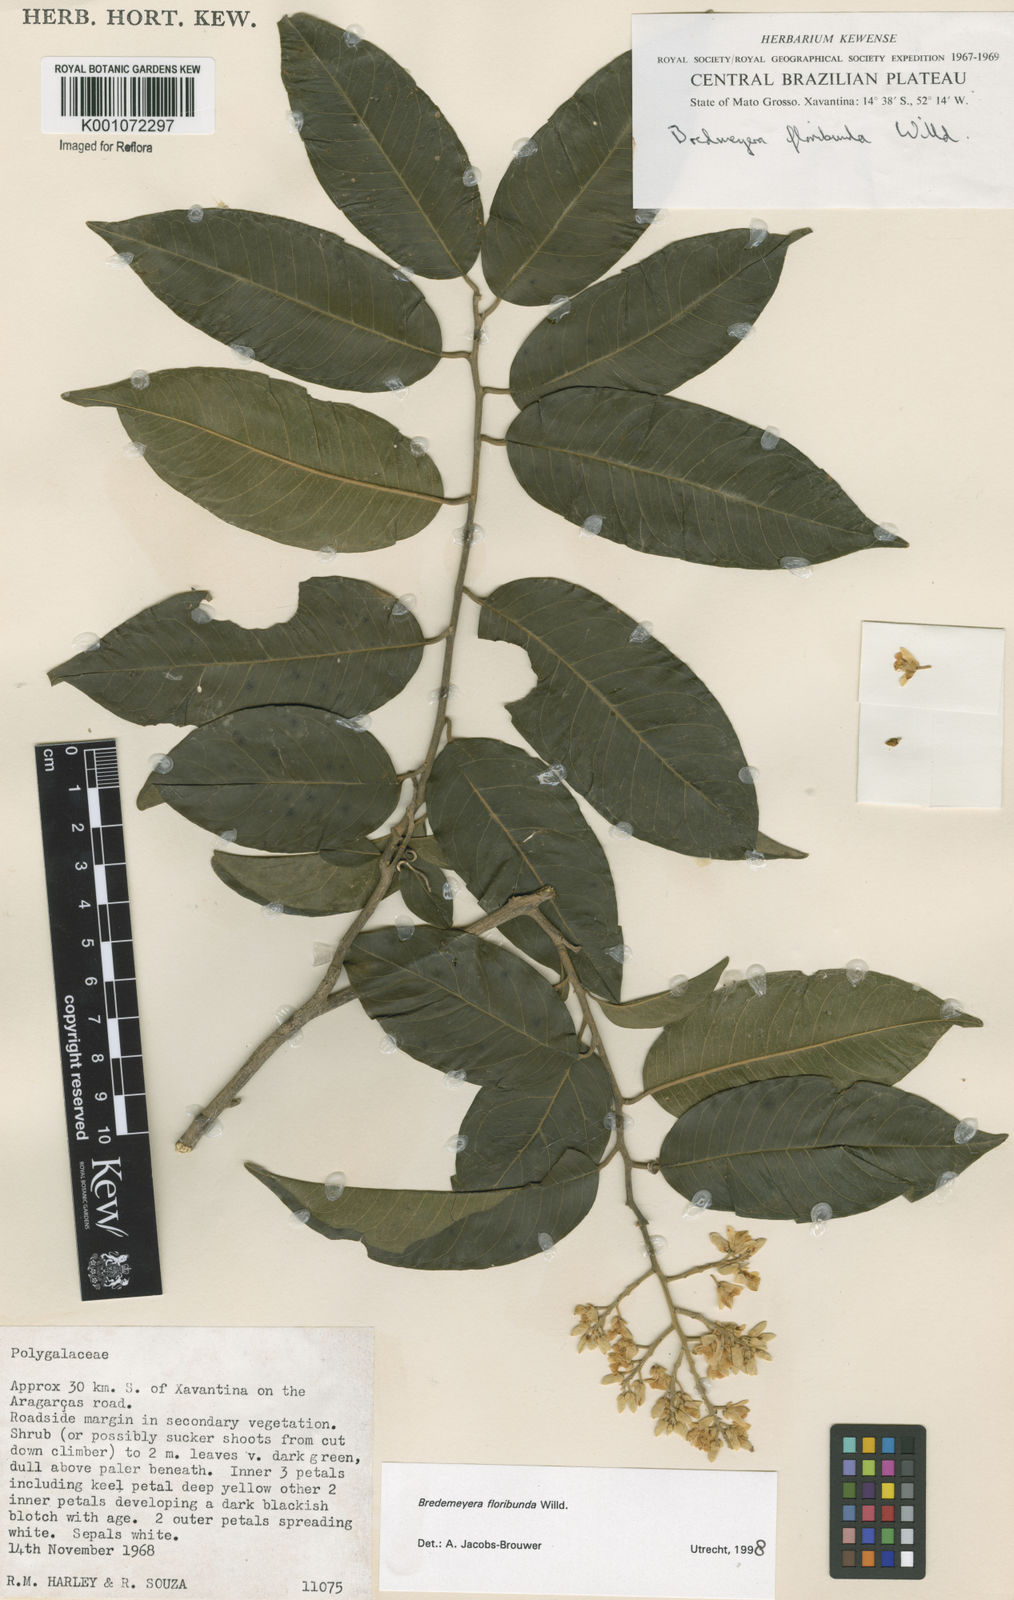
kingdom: Plantae
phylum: Tracheophyta
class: Magnoliopsida
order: Fabales
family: Polygalaceae
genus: Bredemeyera
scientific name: Bredemeyera floribunda
